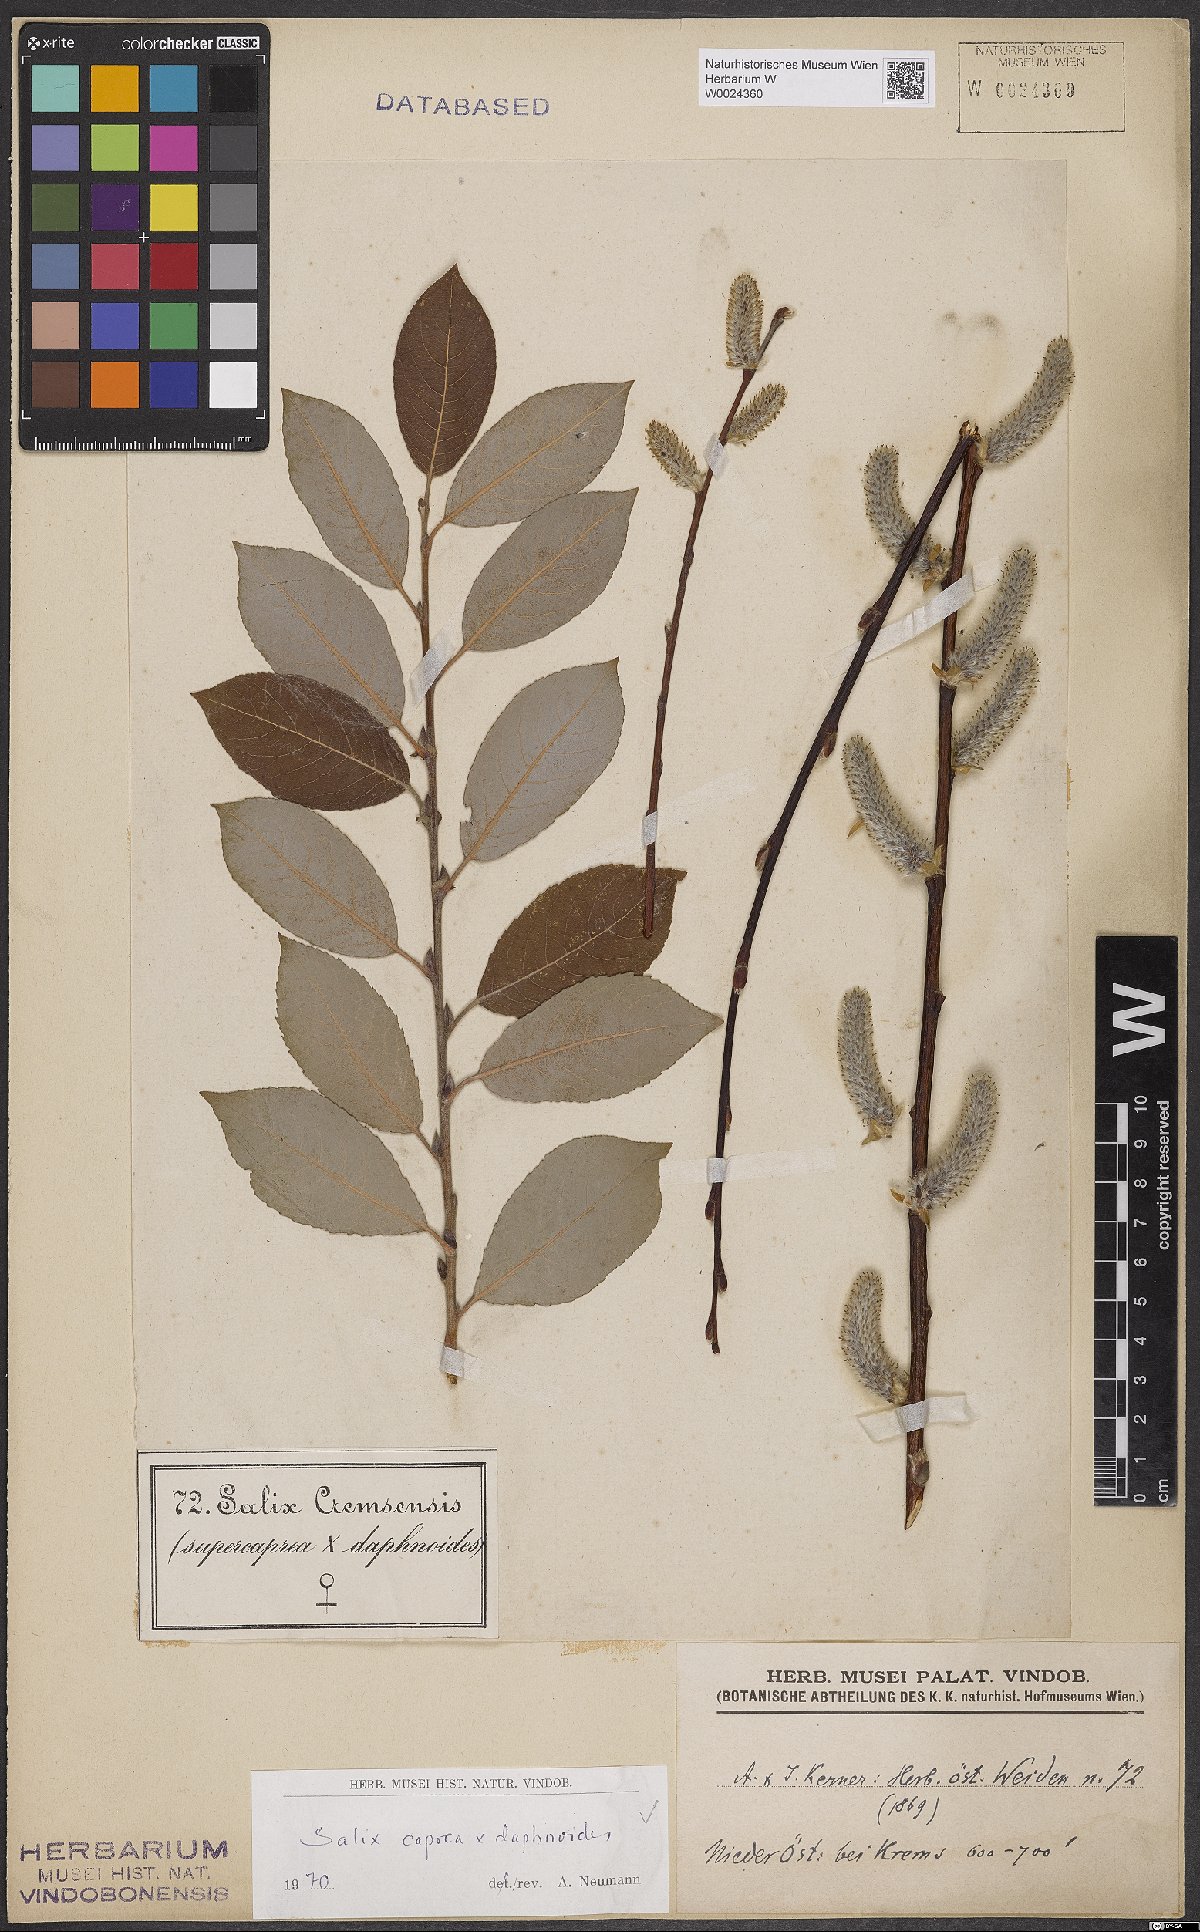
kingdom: Plantae
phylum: Tracheophyta
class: Magnoliopsida
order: Malpighiales
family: Salicaceae
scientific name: Salicaceae
